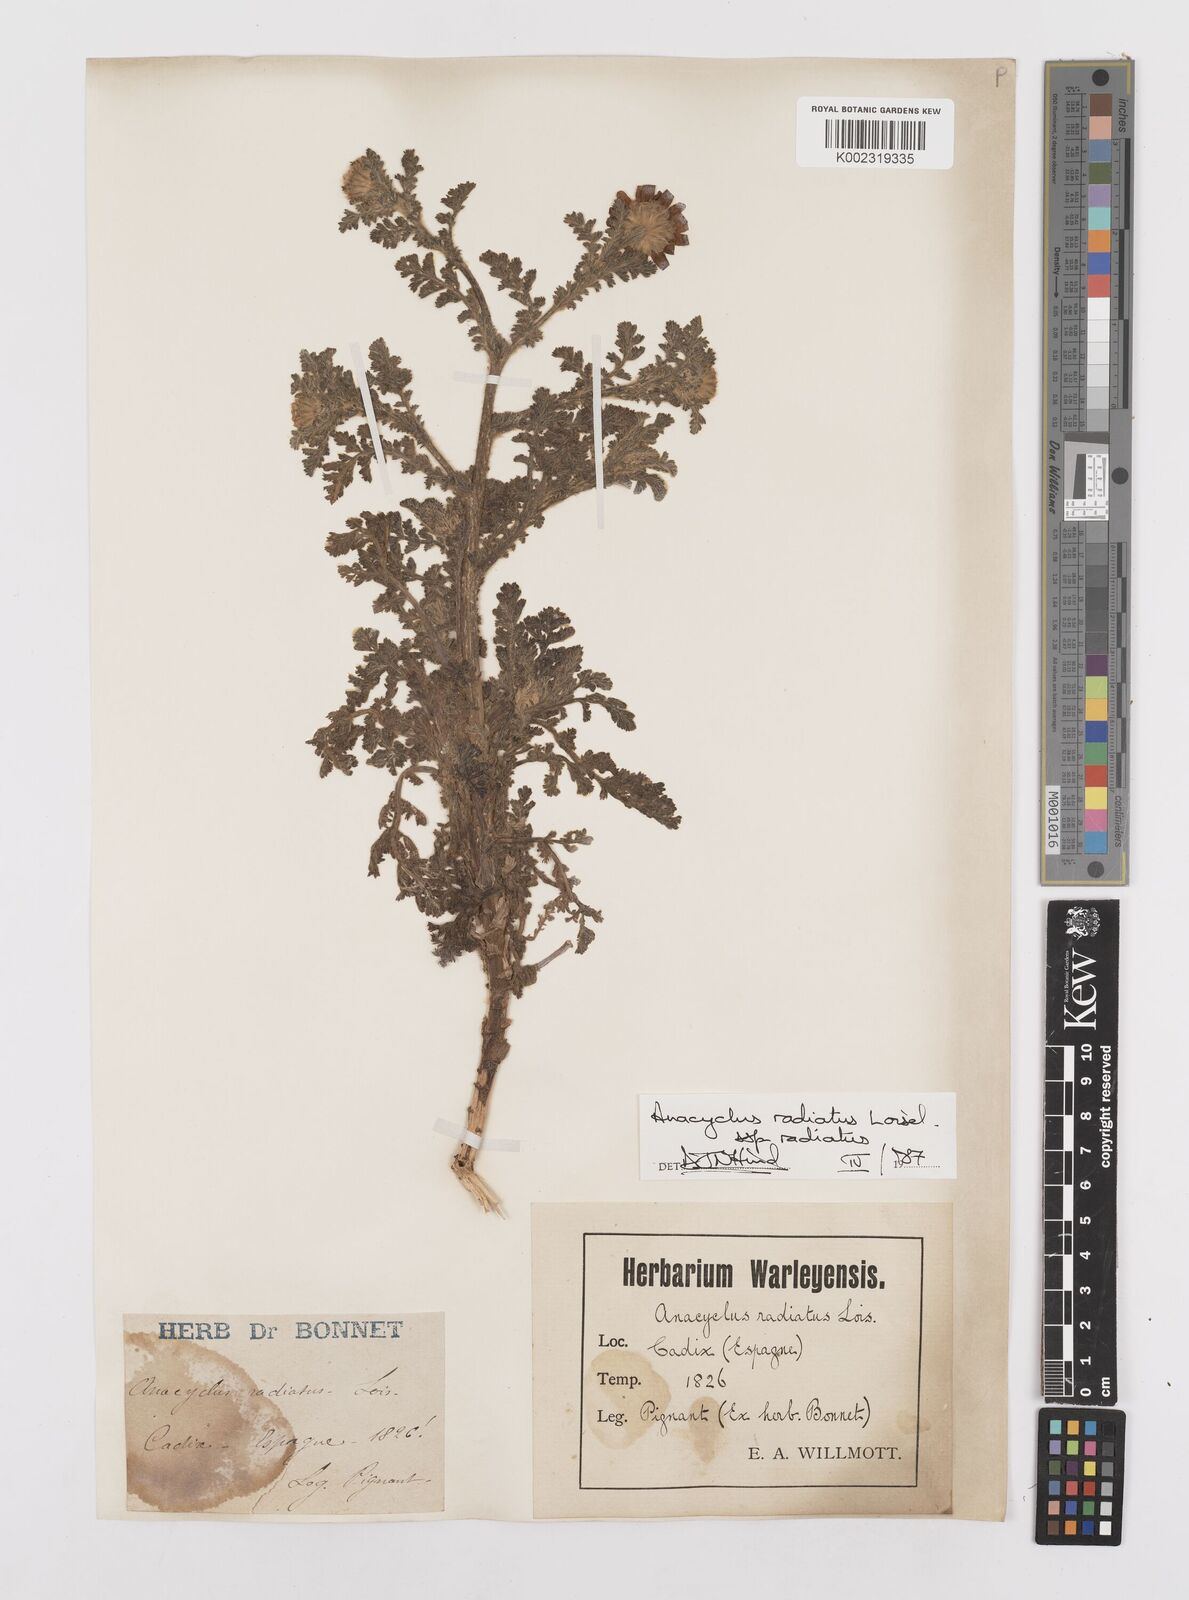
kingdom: Plantae
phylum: Tracheophyta
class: Magnoliopsida
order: Asterales
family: Asteraceae
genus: Anacyclus
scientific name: Anacyclus radiatus
